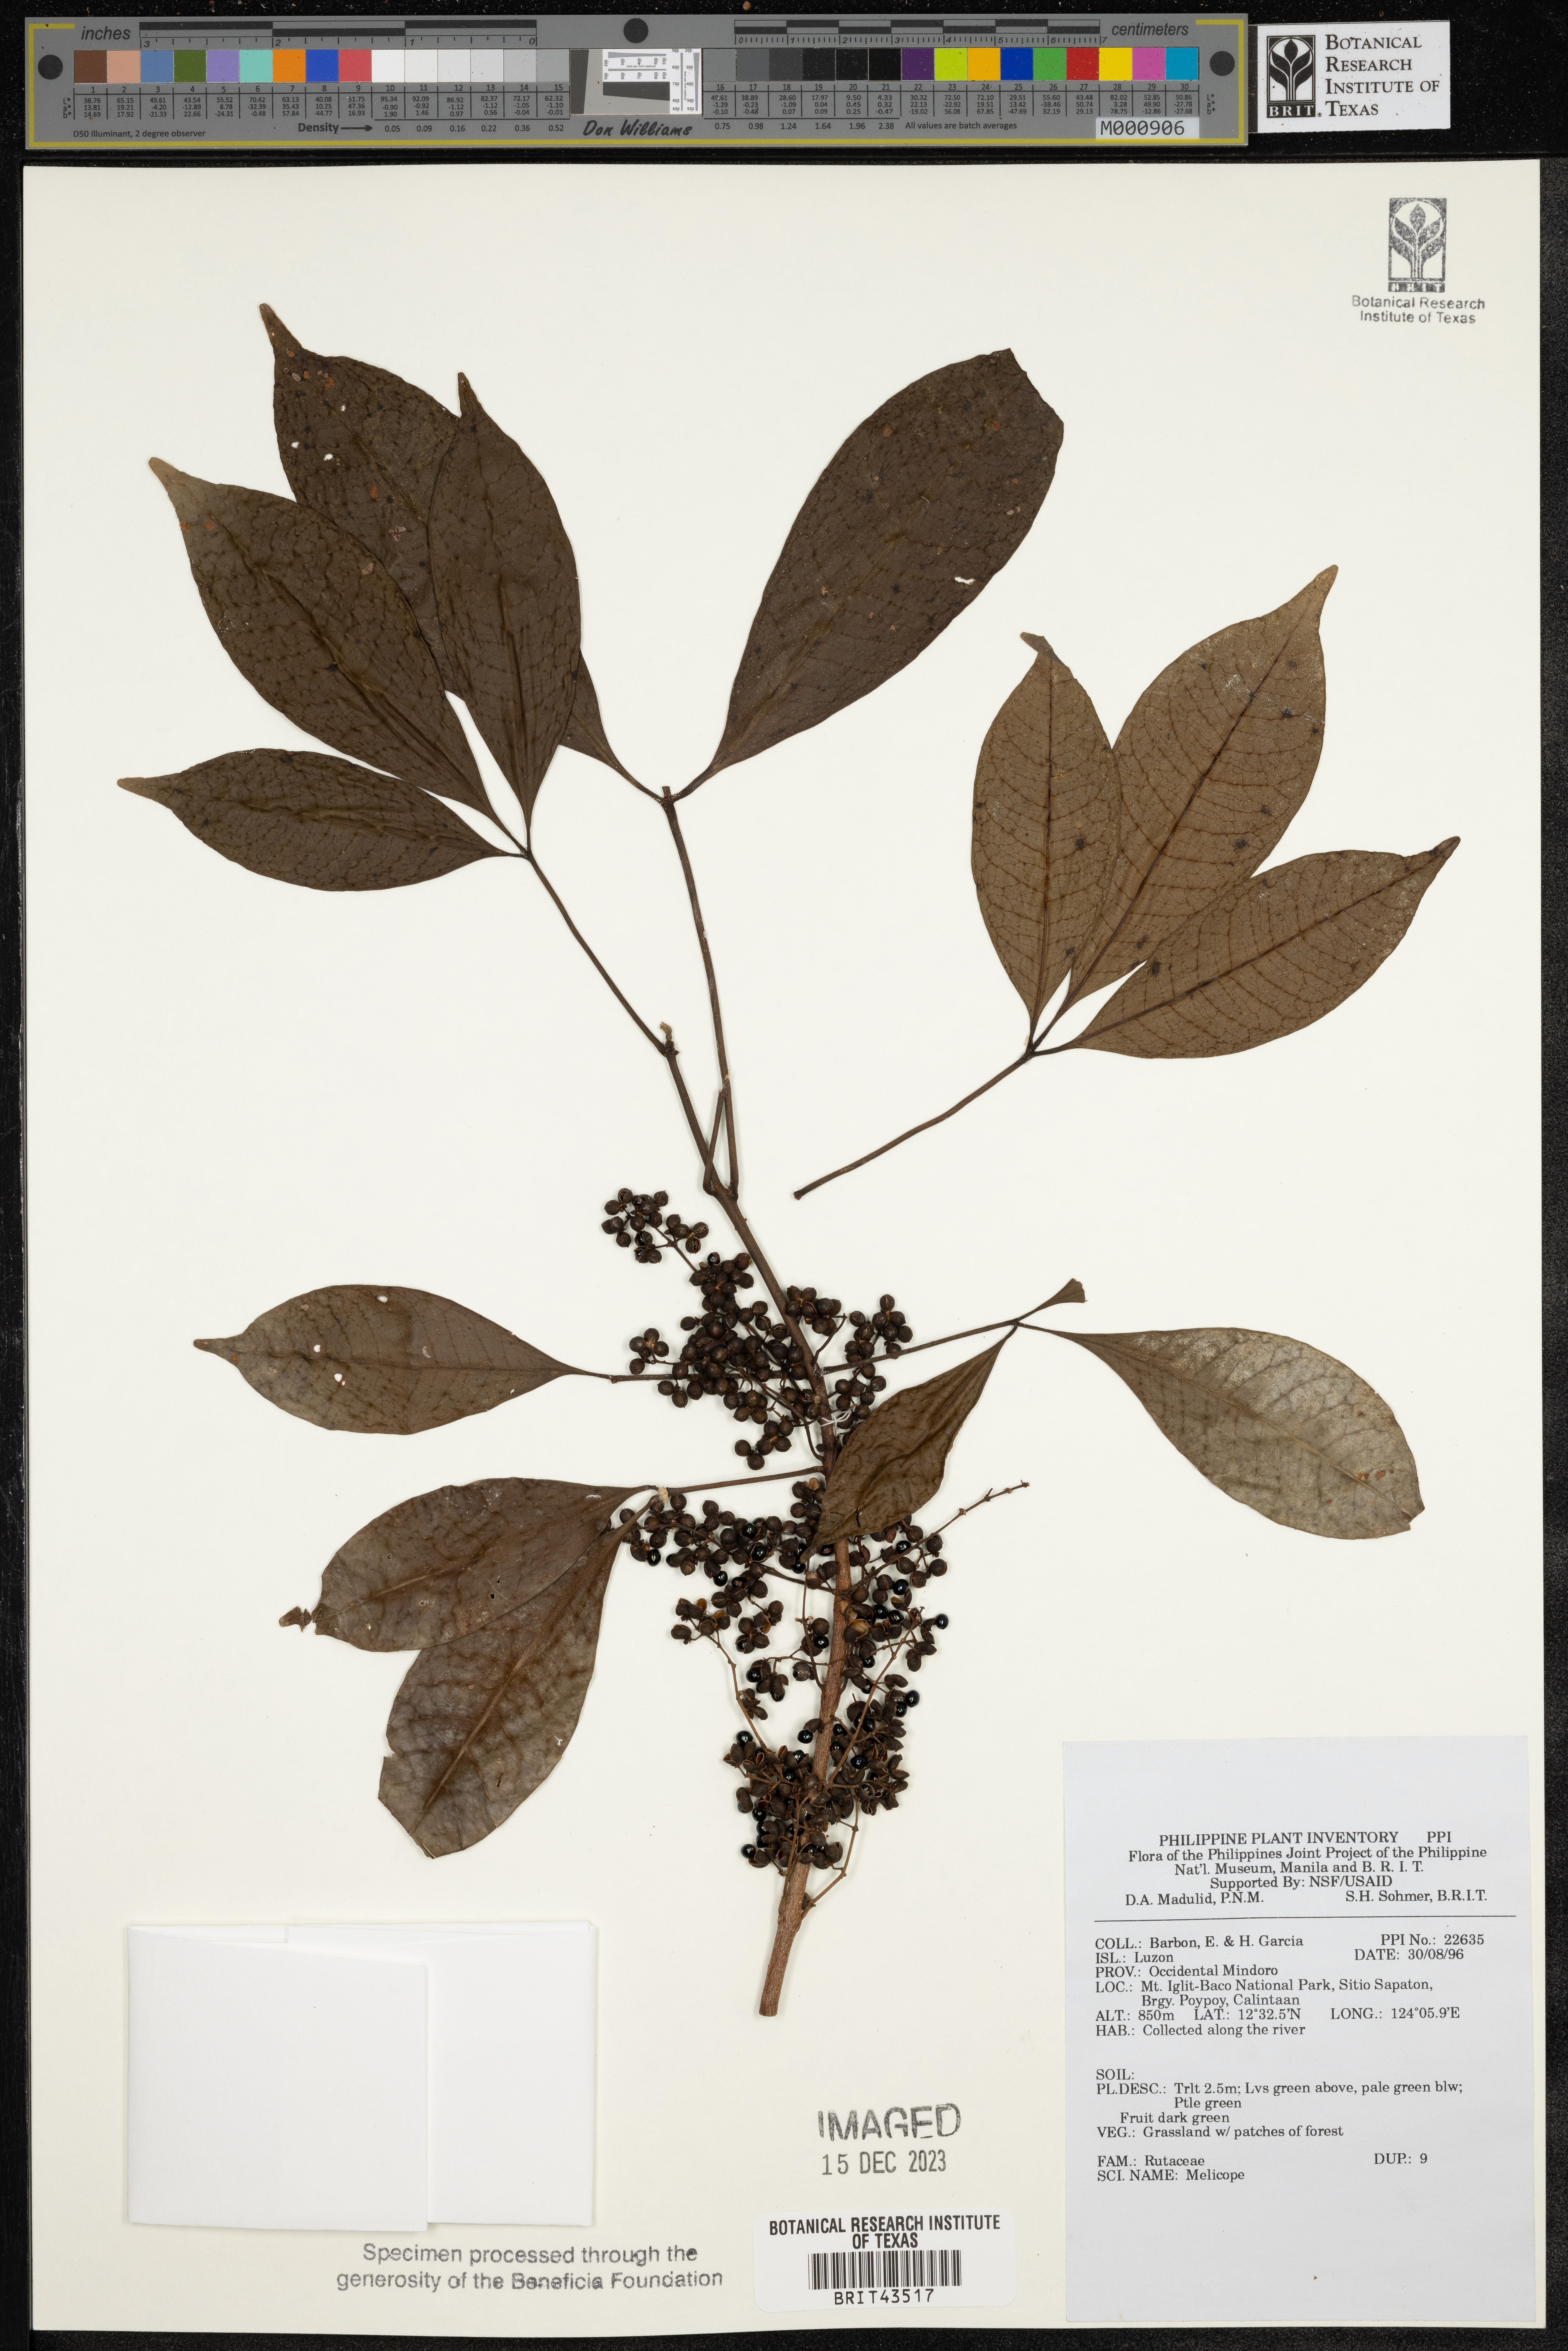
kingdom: Plantae
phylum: Tracheophyta
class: Magnoliopsida
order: Sapindales
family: Rutaceae
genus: Melicope
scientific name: Melicope
